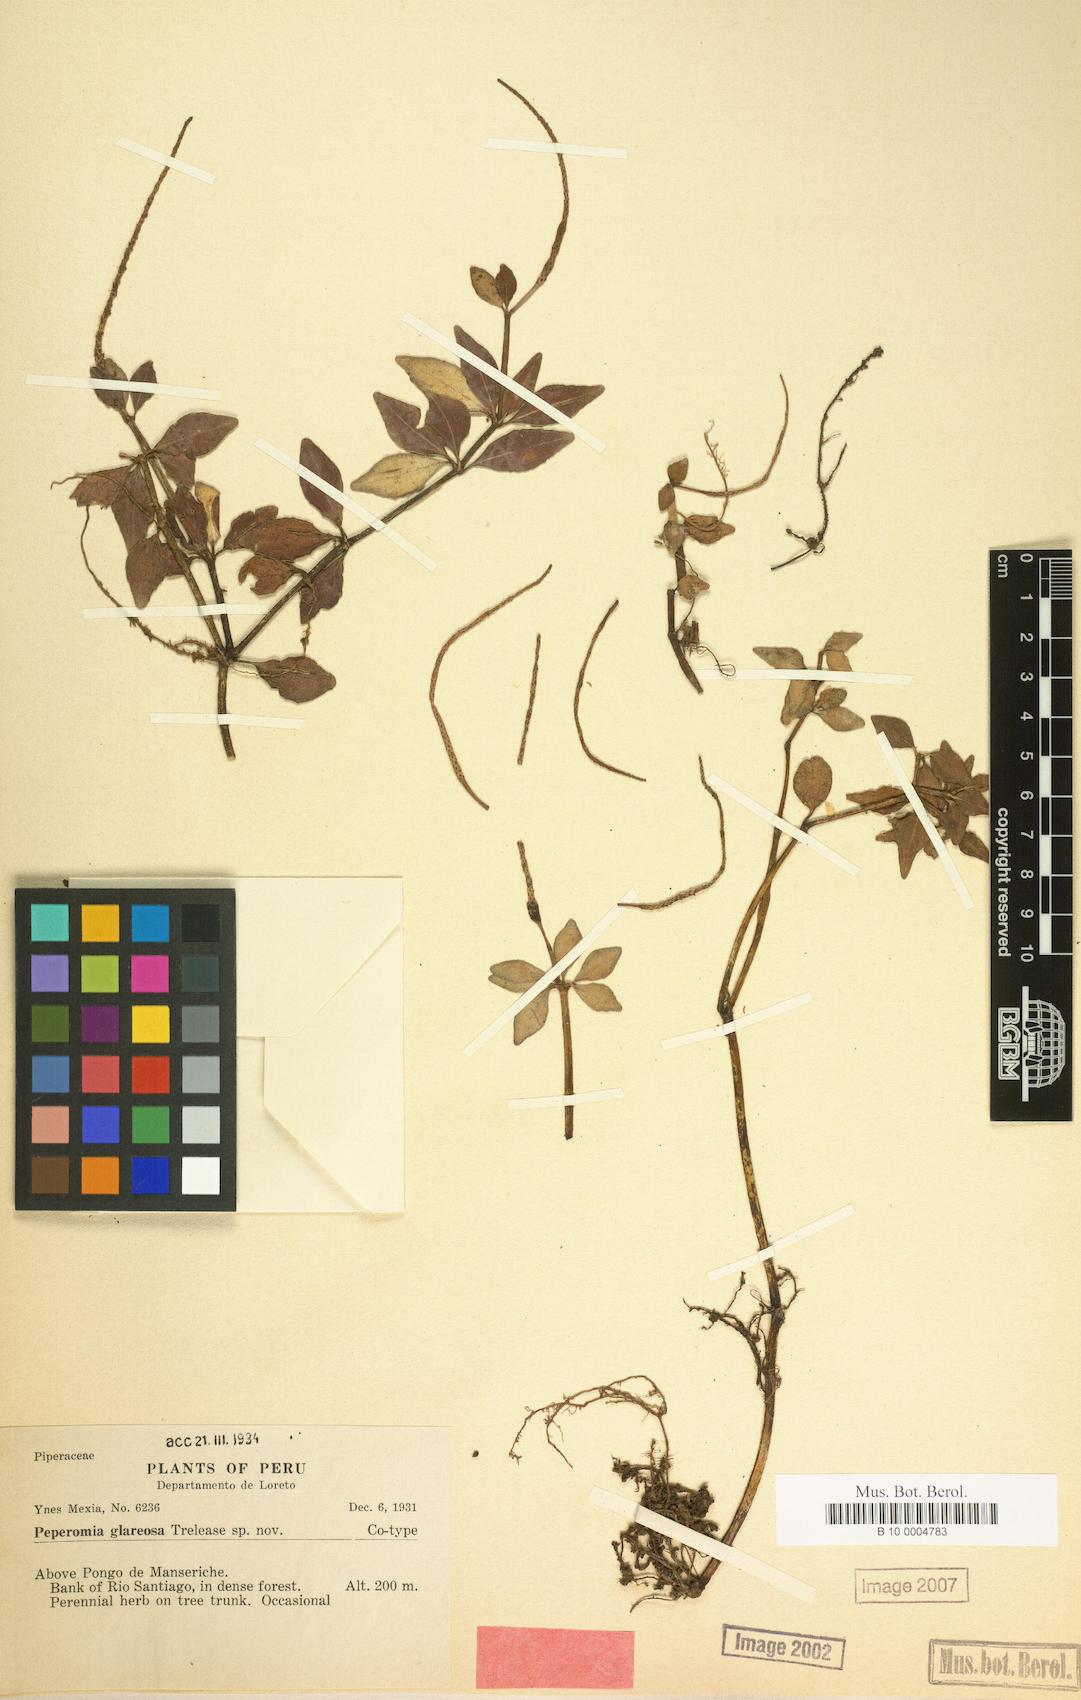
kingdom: Plantae
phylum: Tracheophyta
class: Magnoliopsida
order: Piperales
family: Piperaceae
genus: Peperomia
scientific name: Peperomia glareosa
